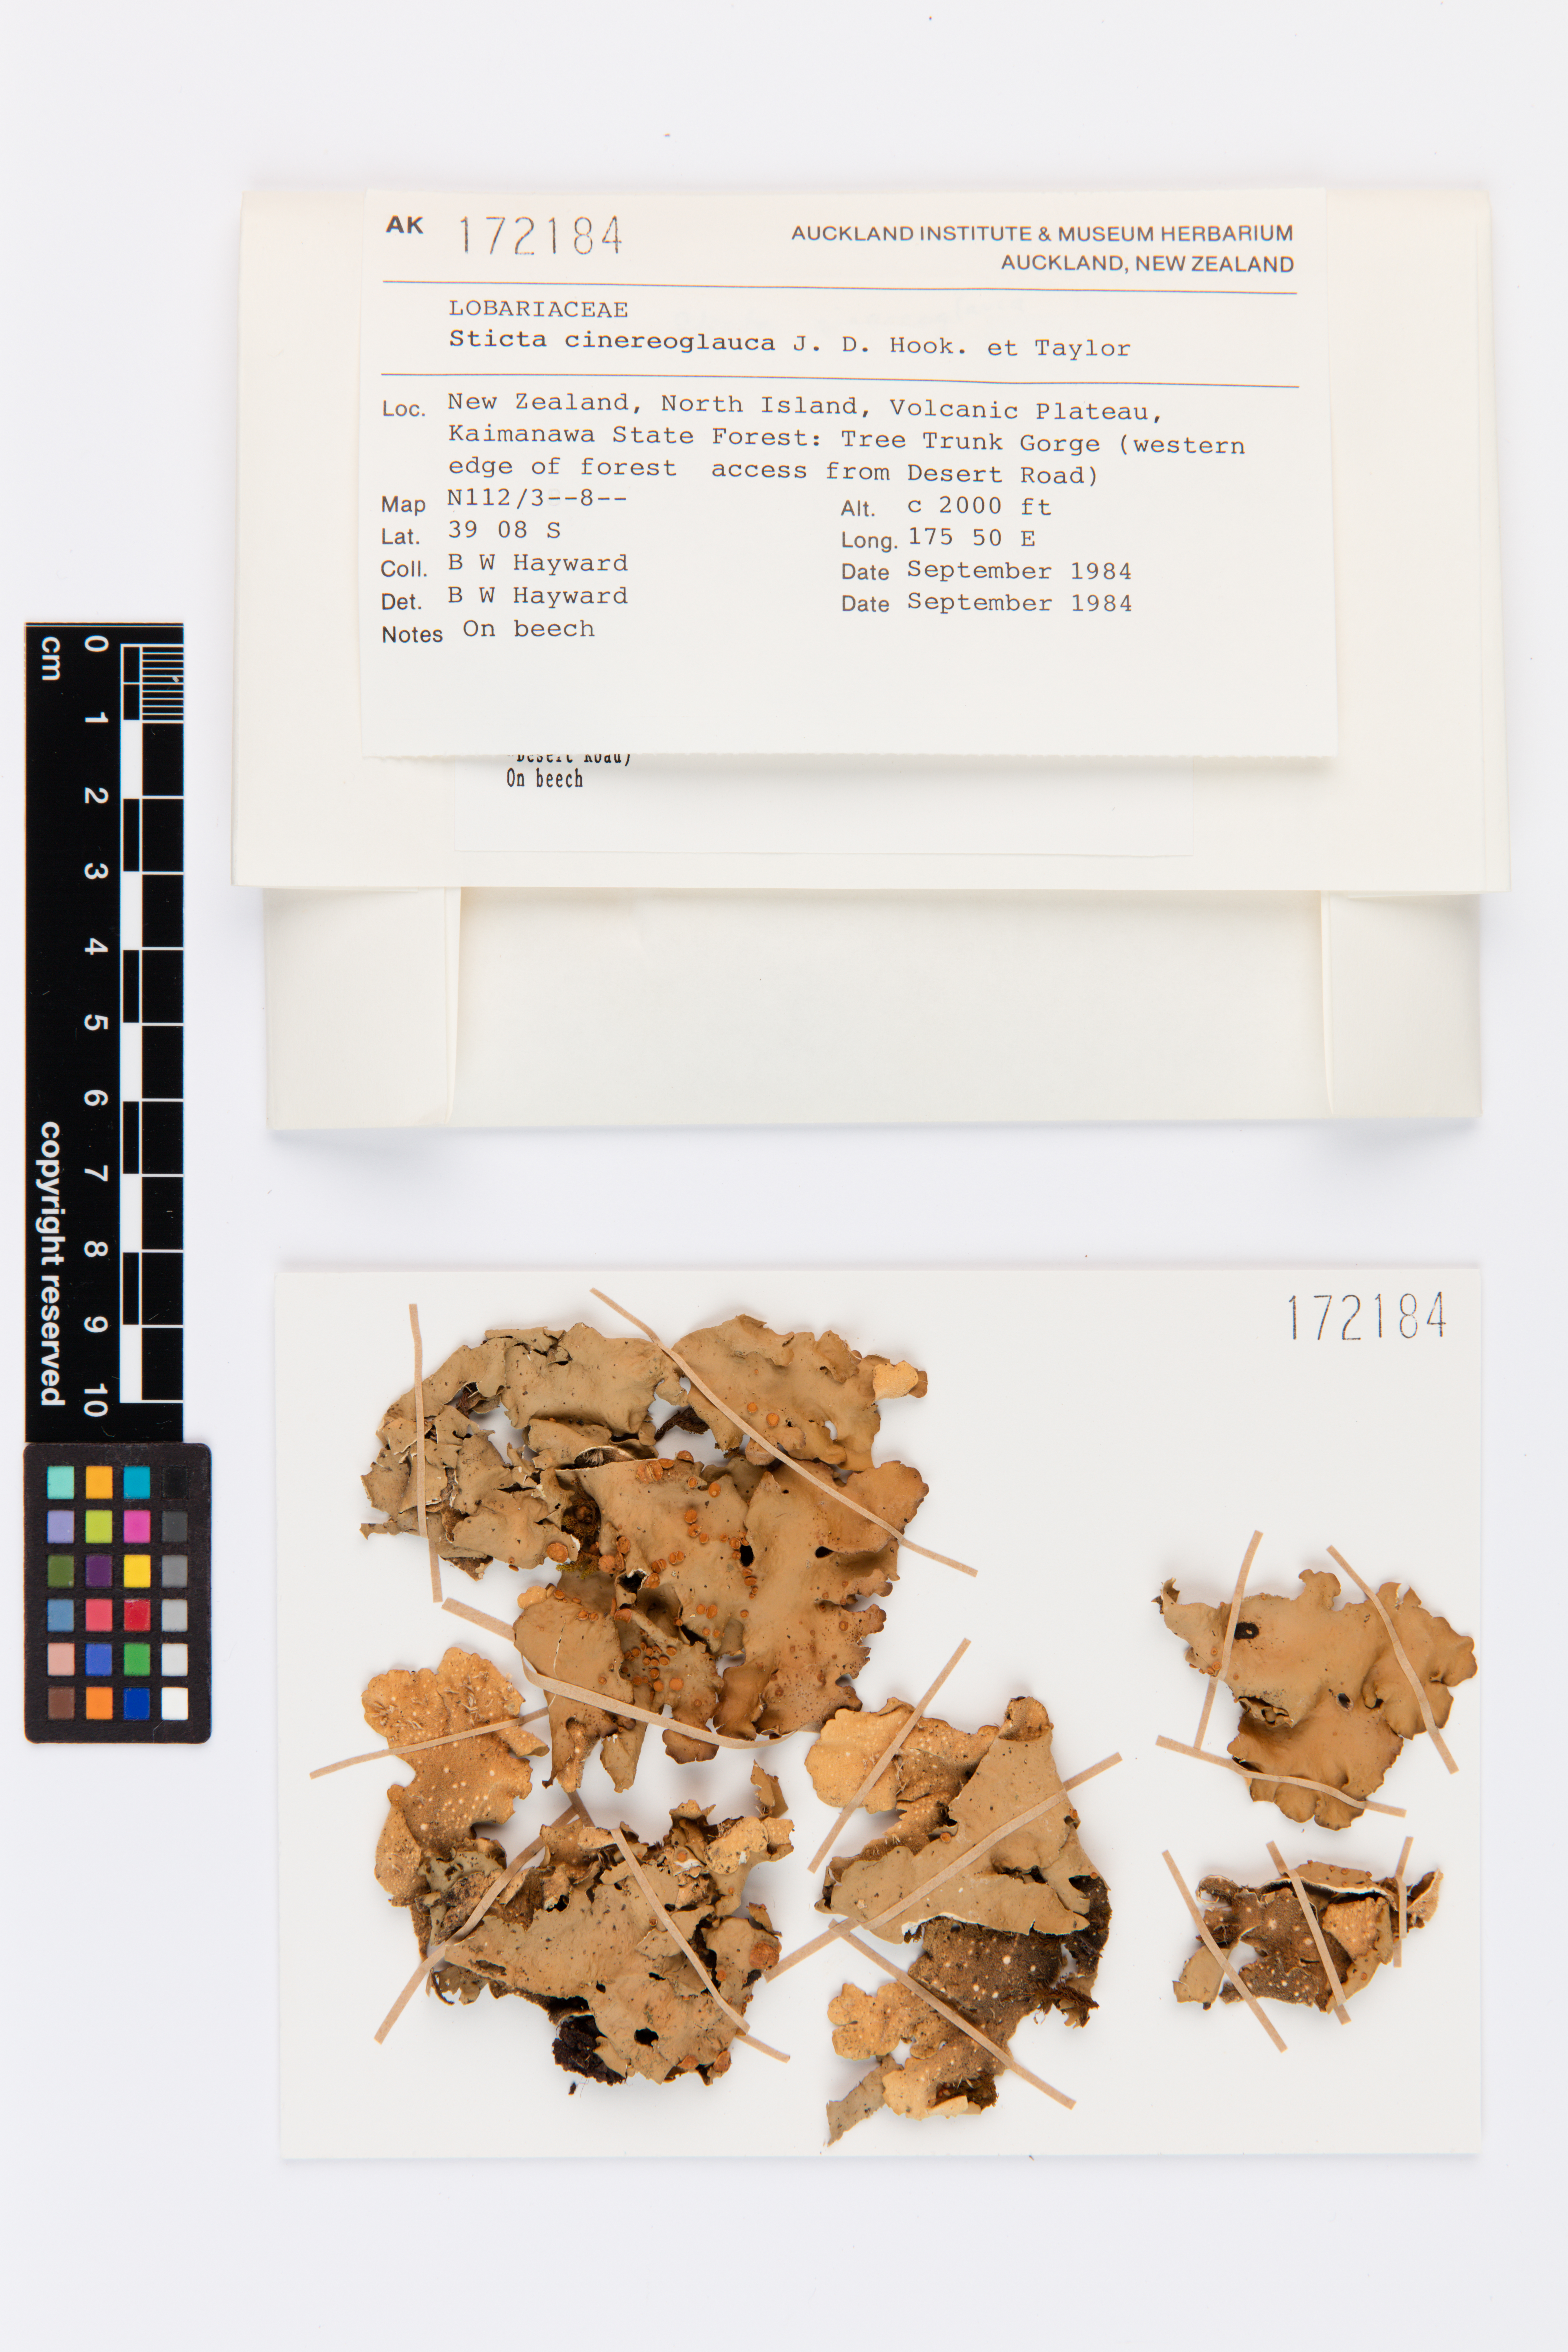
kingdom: Fungi
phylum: Ascomycota
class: Lecanoromycetes
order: Peltigerales
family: Lobariaceae
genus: Sticta
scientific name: Sticta cinereoglauca
